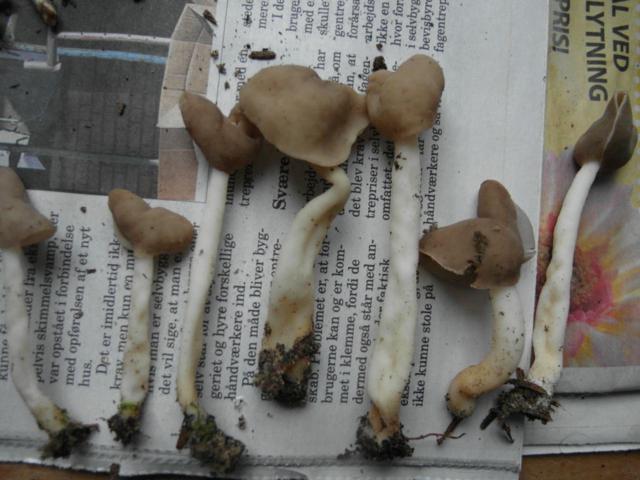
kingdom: Fungi
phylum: Ascomycota
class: Pezizomycetes
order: Pezizales
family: Helvellaceae
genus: Helvella
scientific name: Helvella levis
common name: bredsporet foldhat
